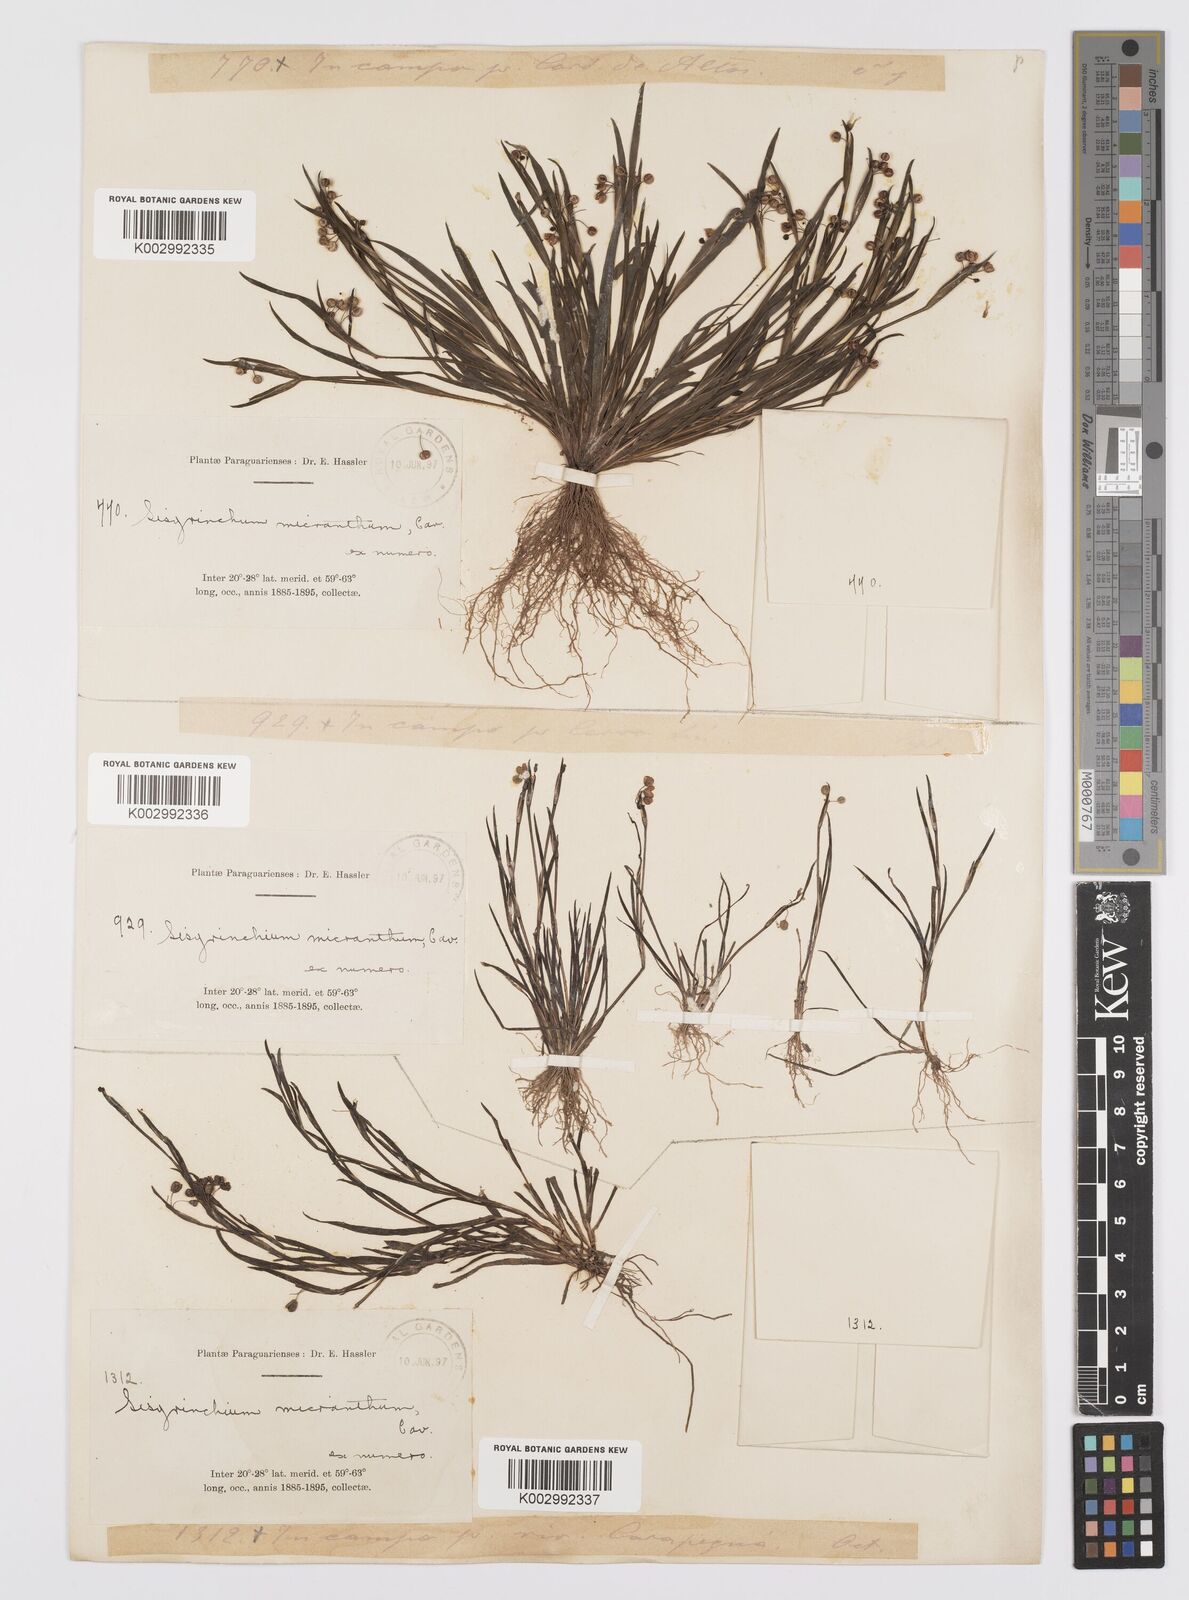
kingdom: Plantae
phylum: Tracheophyta
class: Liliopsida
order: Asparagales
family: Iridaceae
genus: Sisyrinchium
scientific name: Sisyrinchium micranthum
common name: Bermuda pigroot
